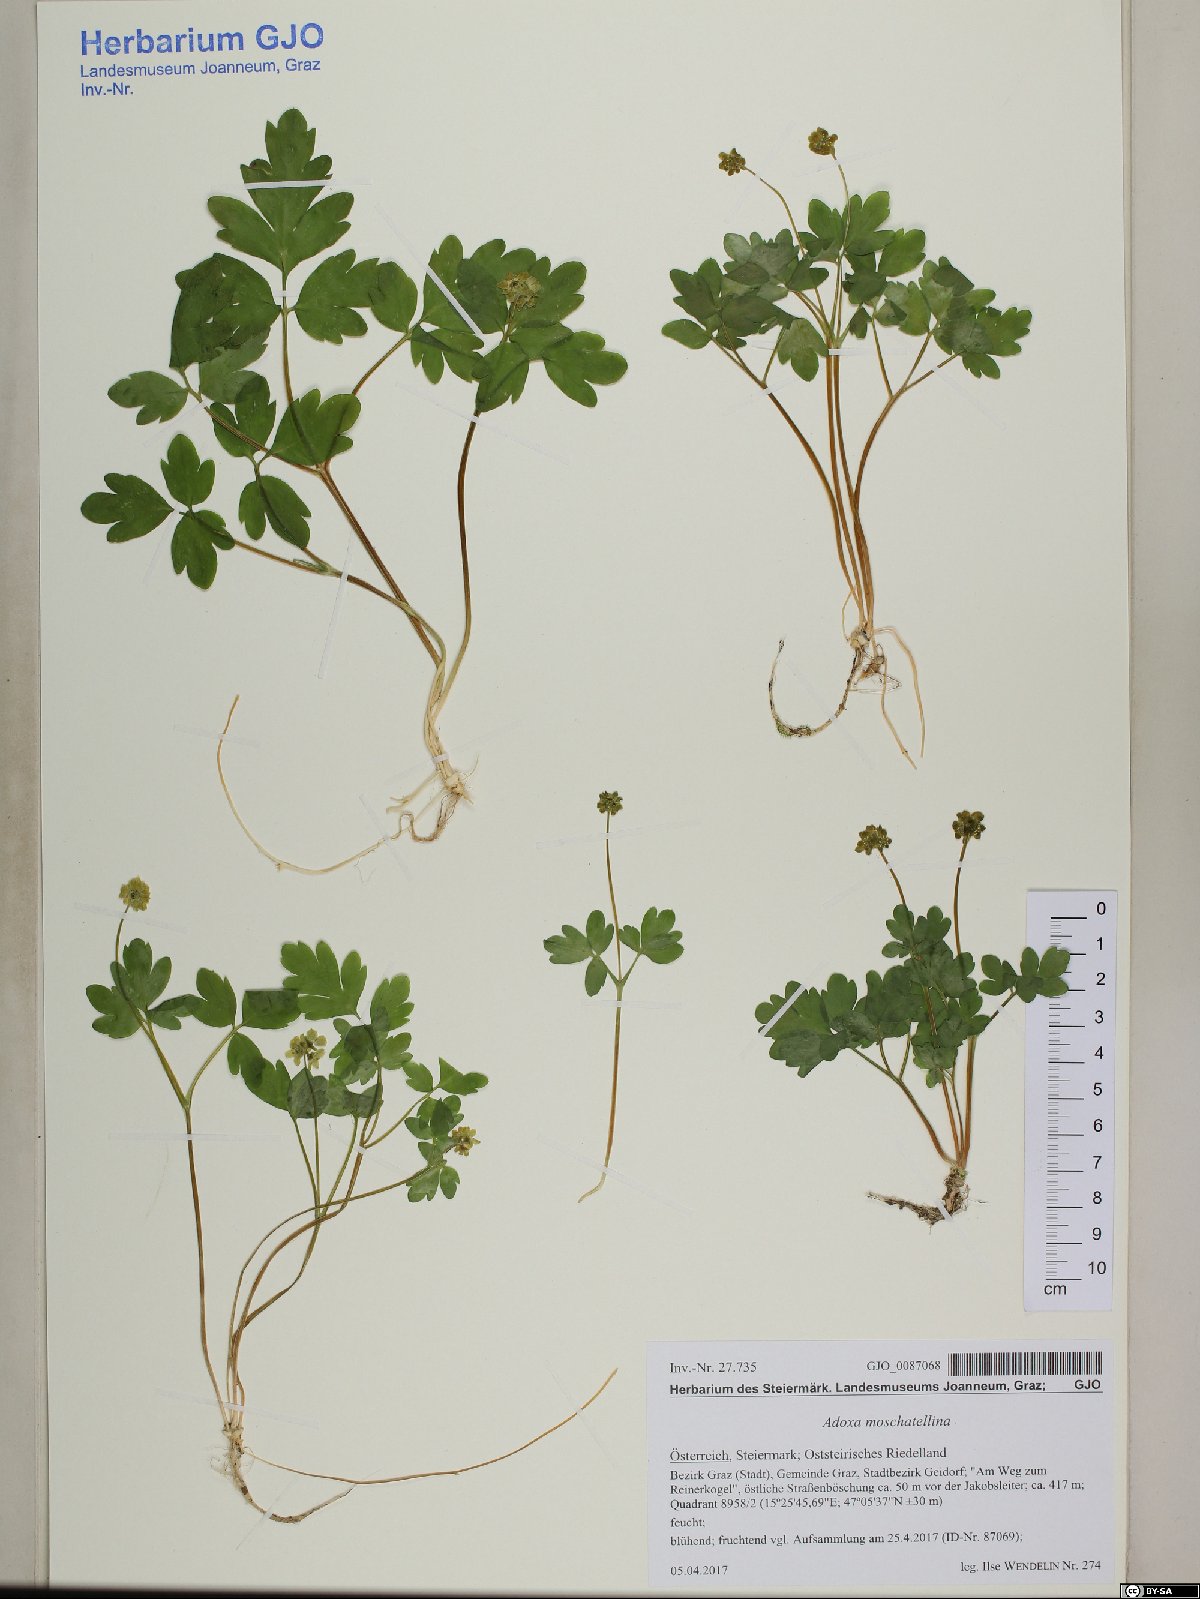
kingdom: Plantae
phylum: Tracheophyta
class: Magnoliopsida
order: Dipsacales
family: Viburnaceae
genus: Adoxa
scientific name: Adoxa moschatellina
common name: Moschatel
